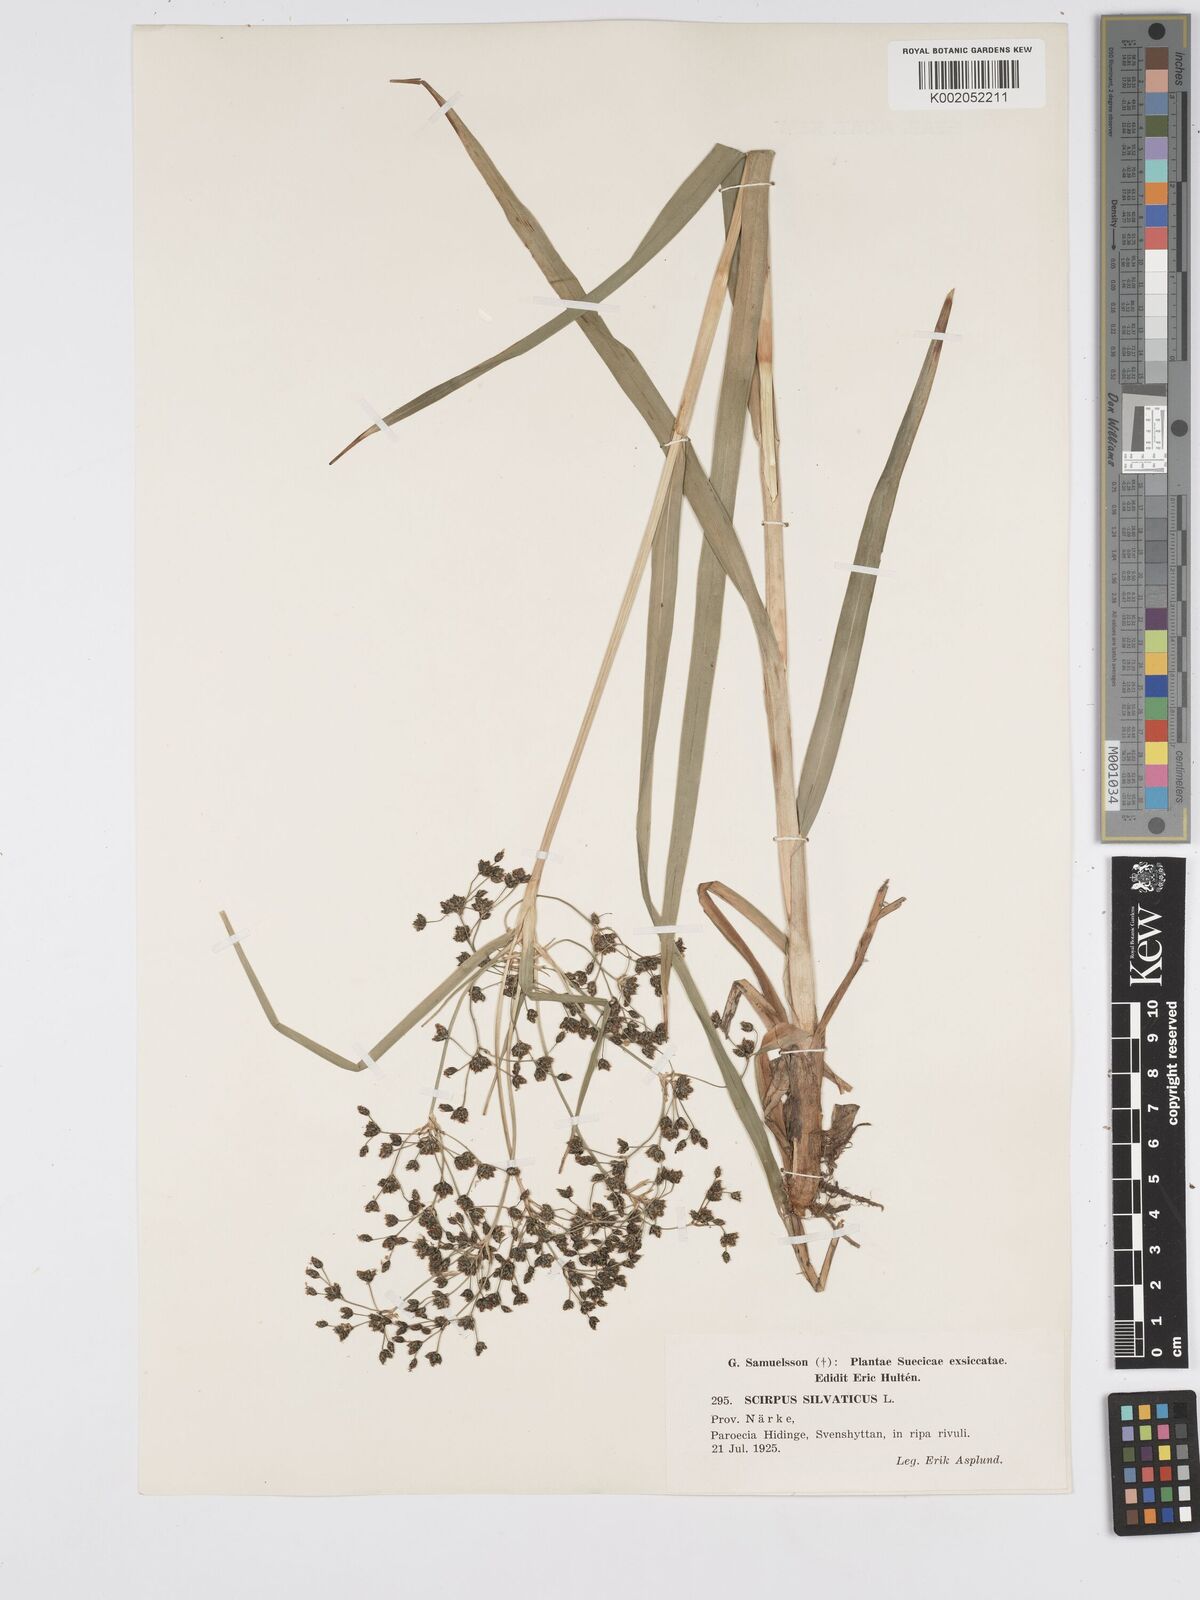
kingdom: Plantae
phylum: Tracheophyta
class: Liliopsida
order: Poales
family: Cyperaceae
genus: Scirpus
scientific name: Scirpus sylvaticus
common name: Wood club-rush
